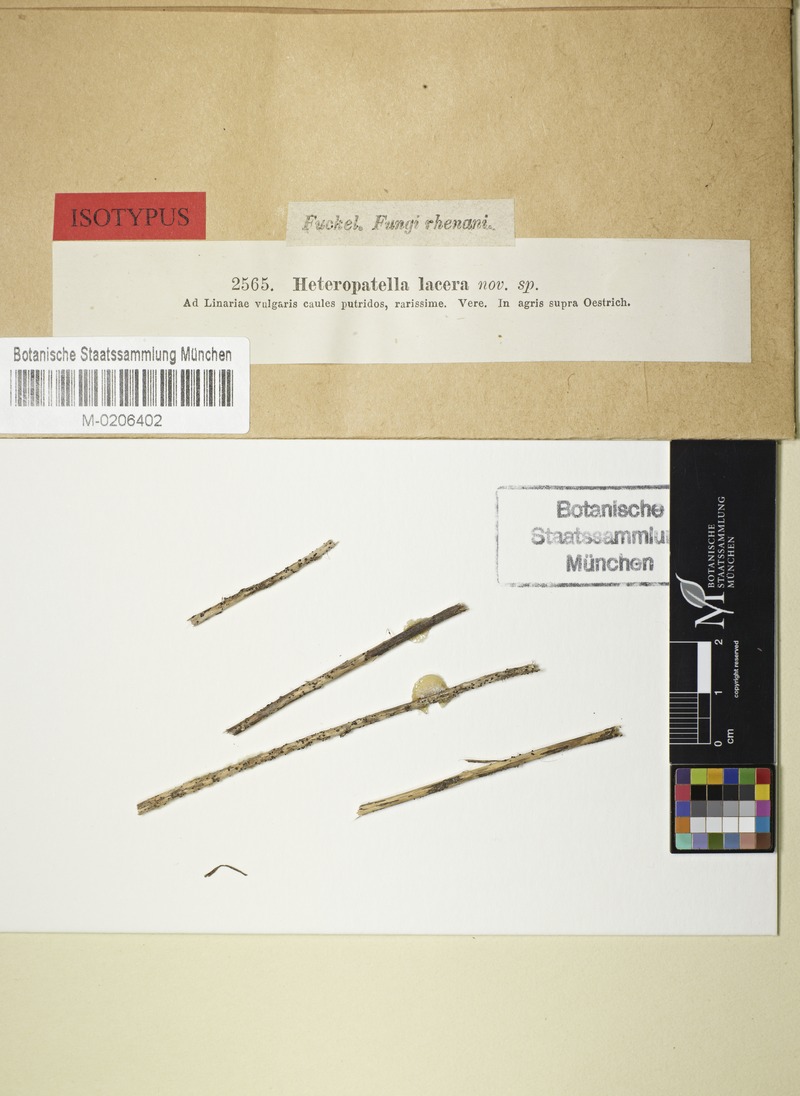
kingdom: Fungi
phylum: Ascomycota
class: Leotiomycetes
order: Helotiales
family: Heterosphaeriaceae
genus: Heteropatella
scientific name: Heteropatella lacera
